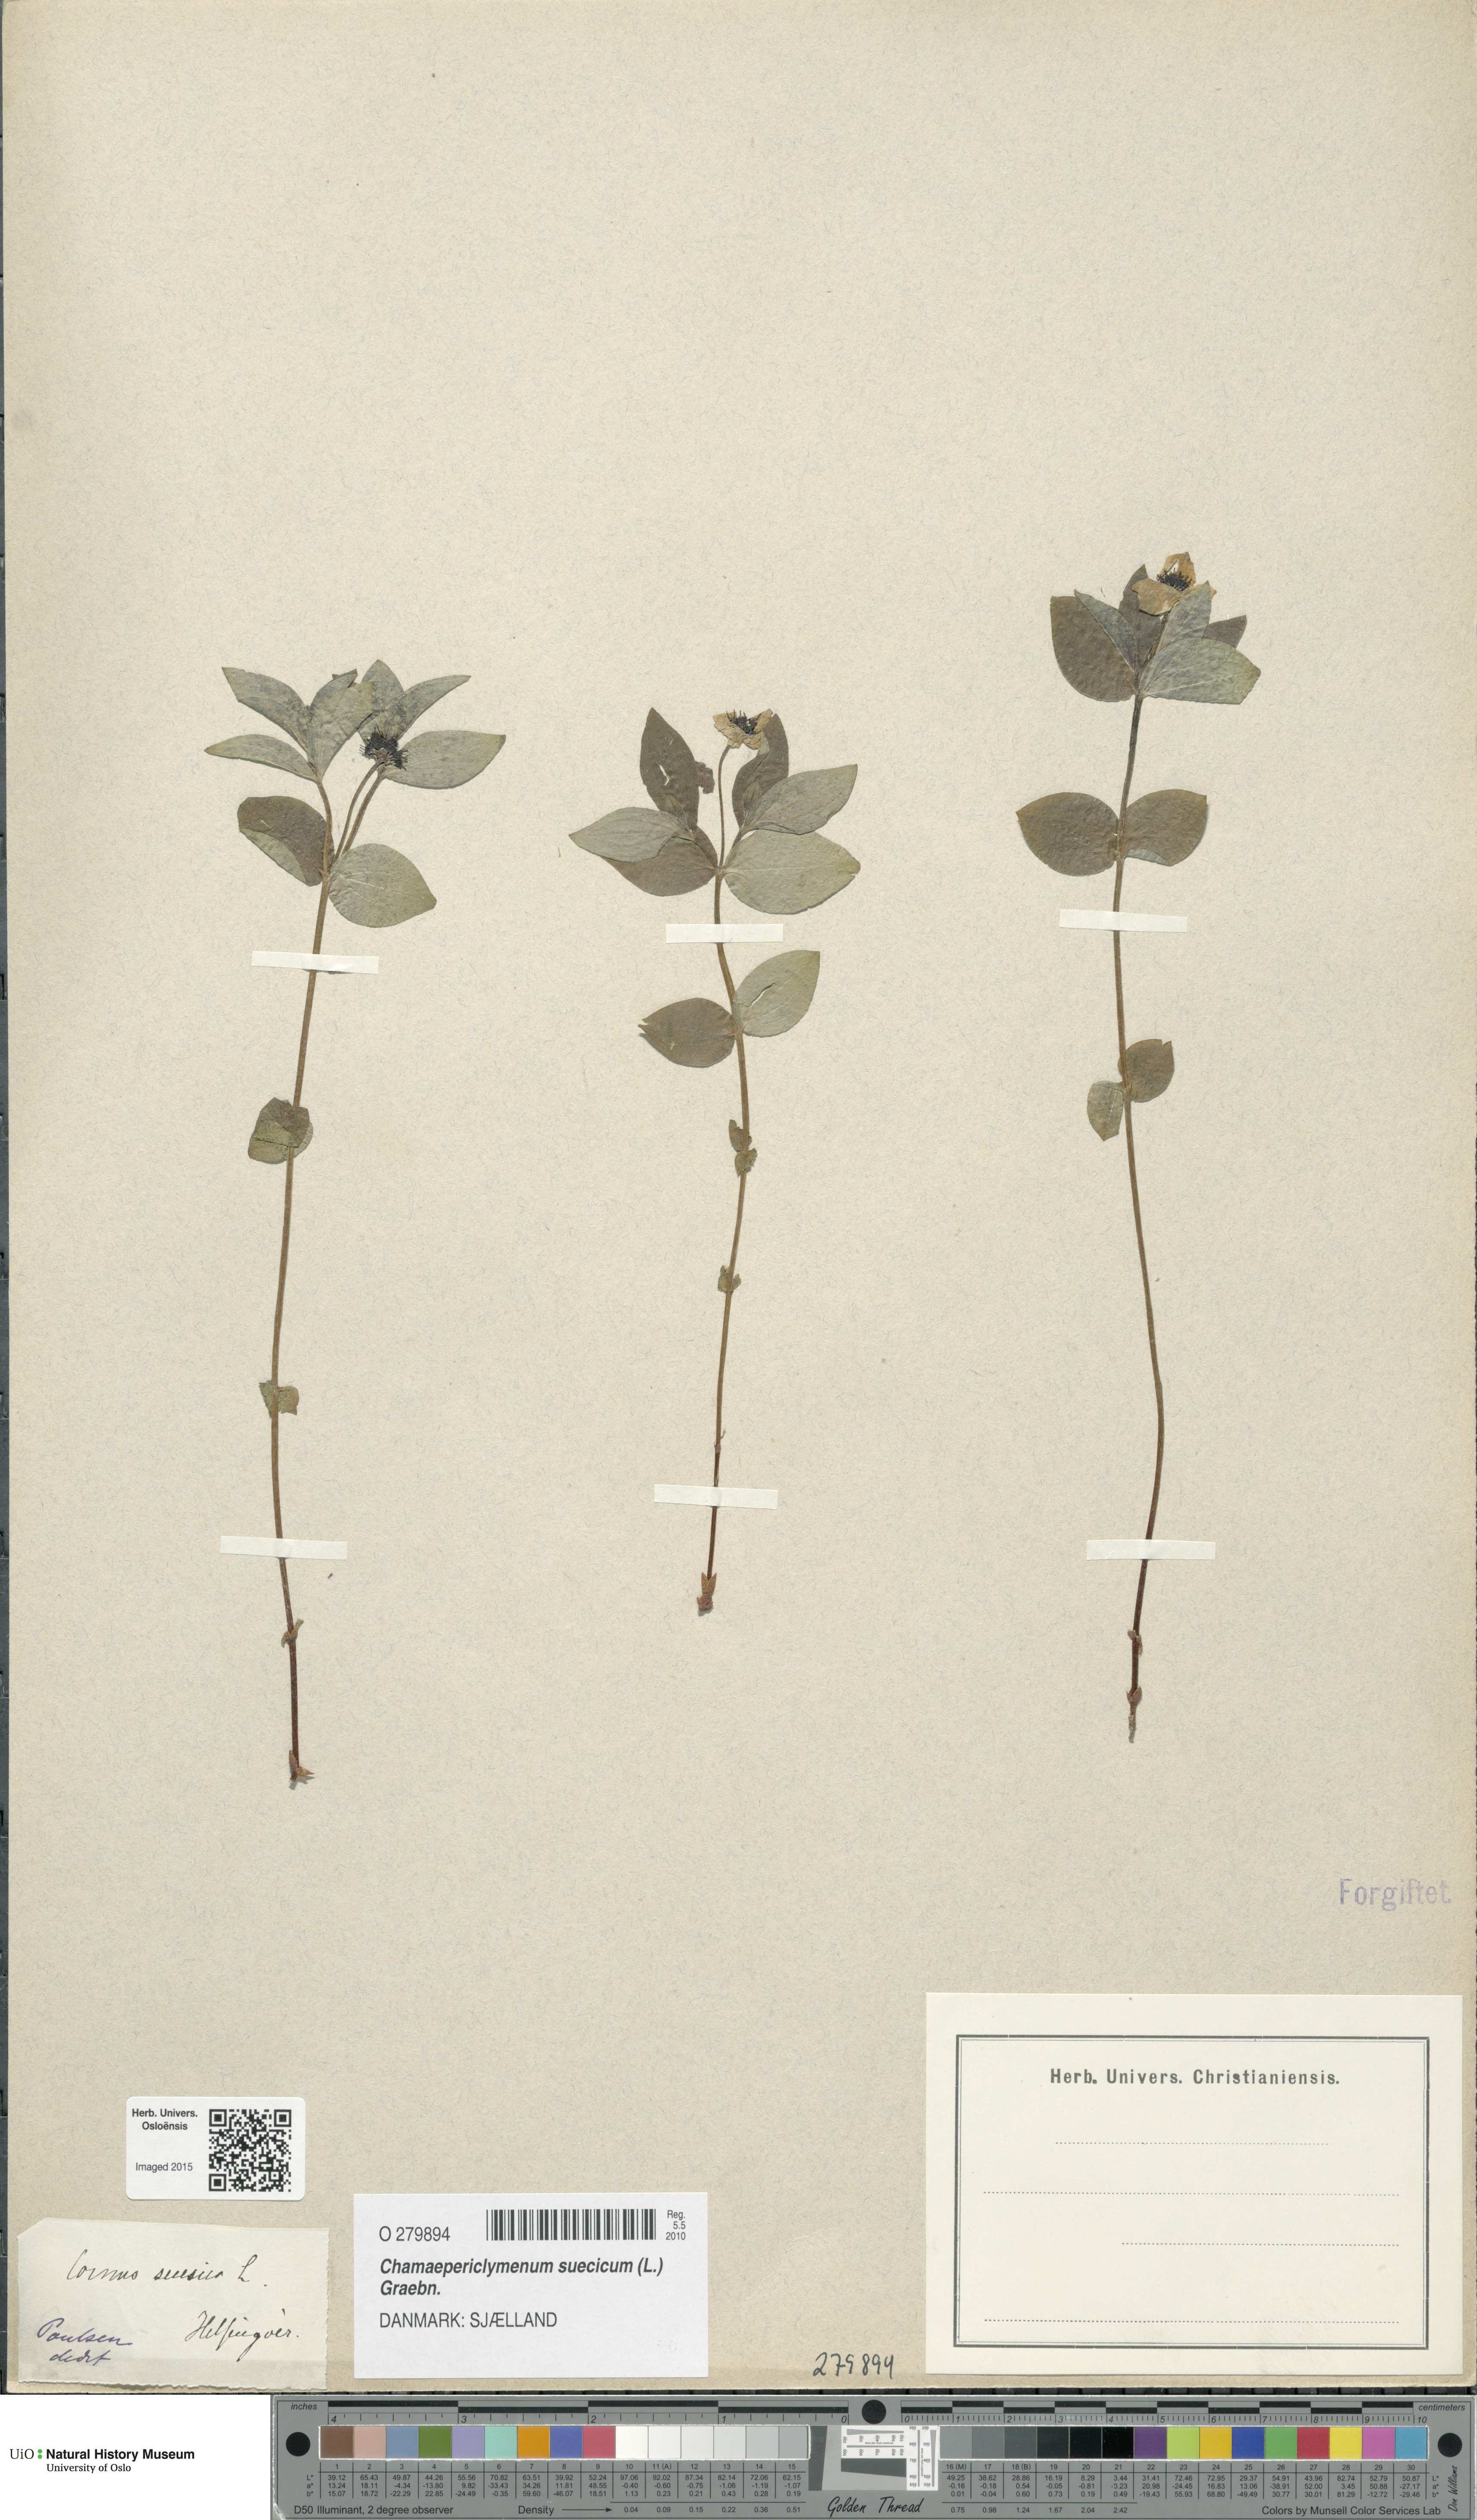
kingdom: Plantae
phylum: Tracheophyta
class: Magnoliopsida
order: Cornales
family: Cornaceae
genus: Cornus
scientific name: Cornus suecica
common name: Dwarf cornel
